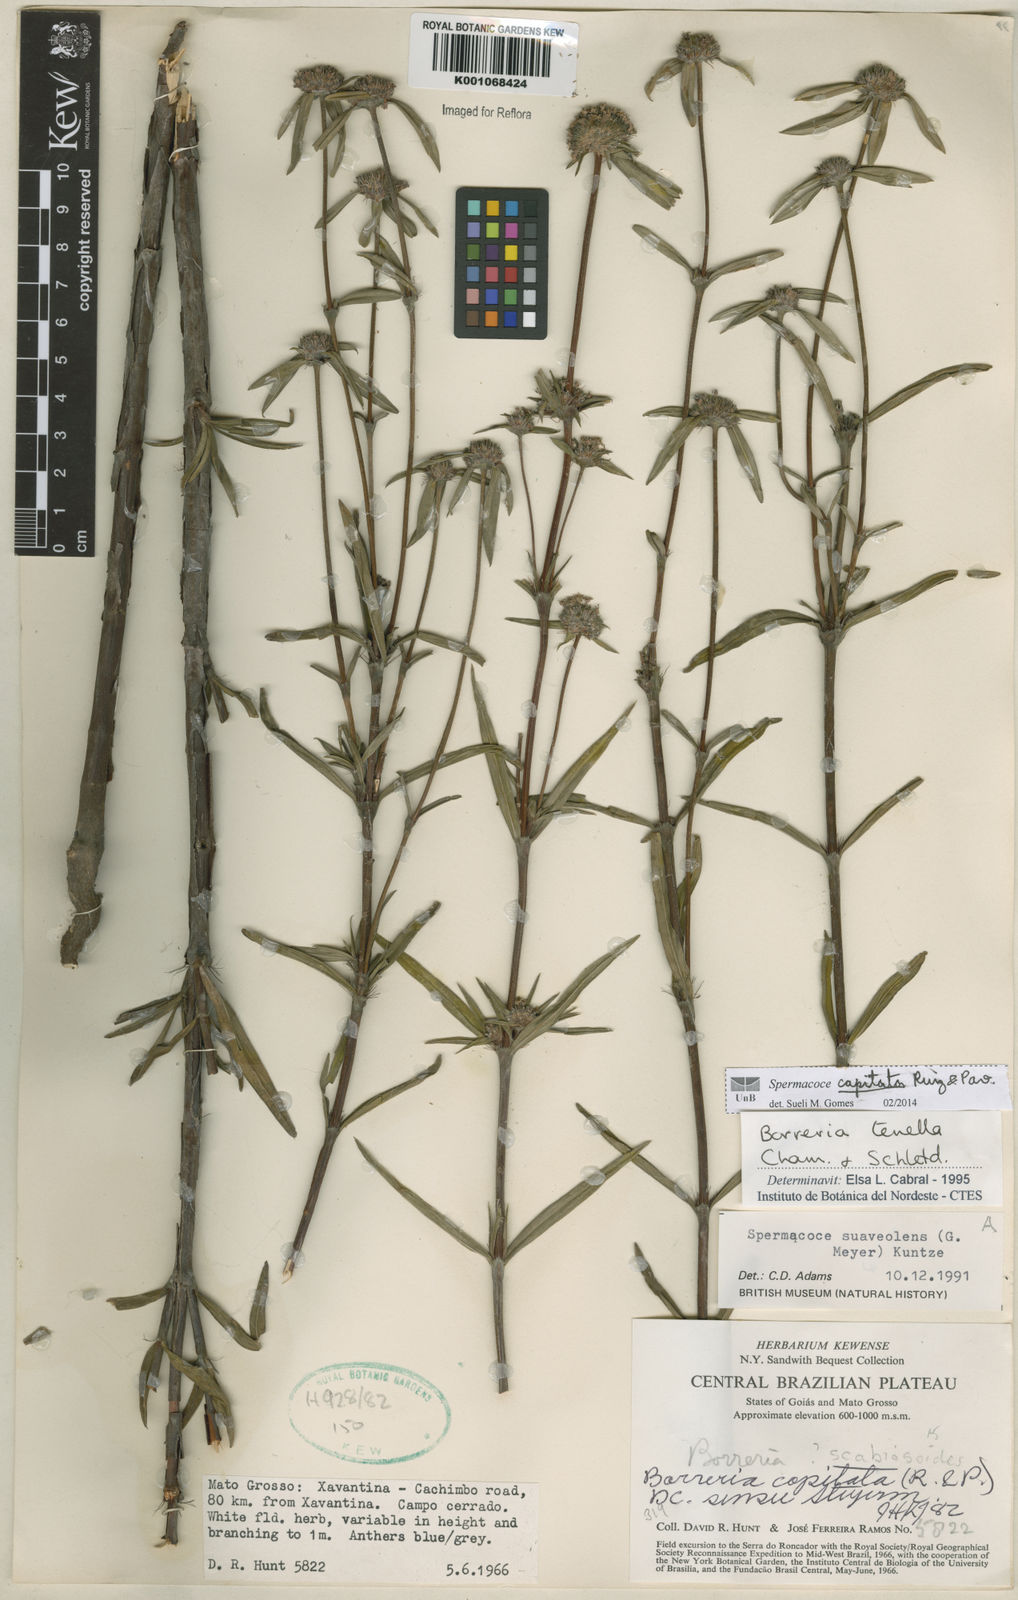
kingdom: Plantae
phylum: Tracheophyta
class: Magnoliopsida
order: Gentianales
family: Rubiaceae
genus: Spermacoce
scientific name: Spermacoce capitata
